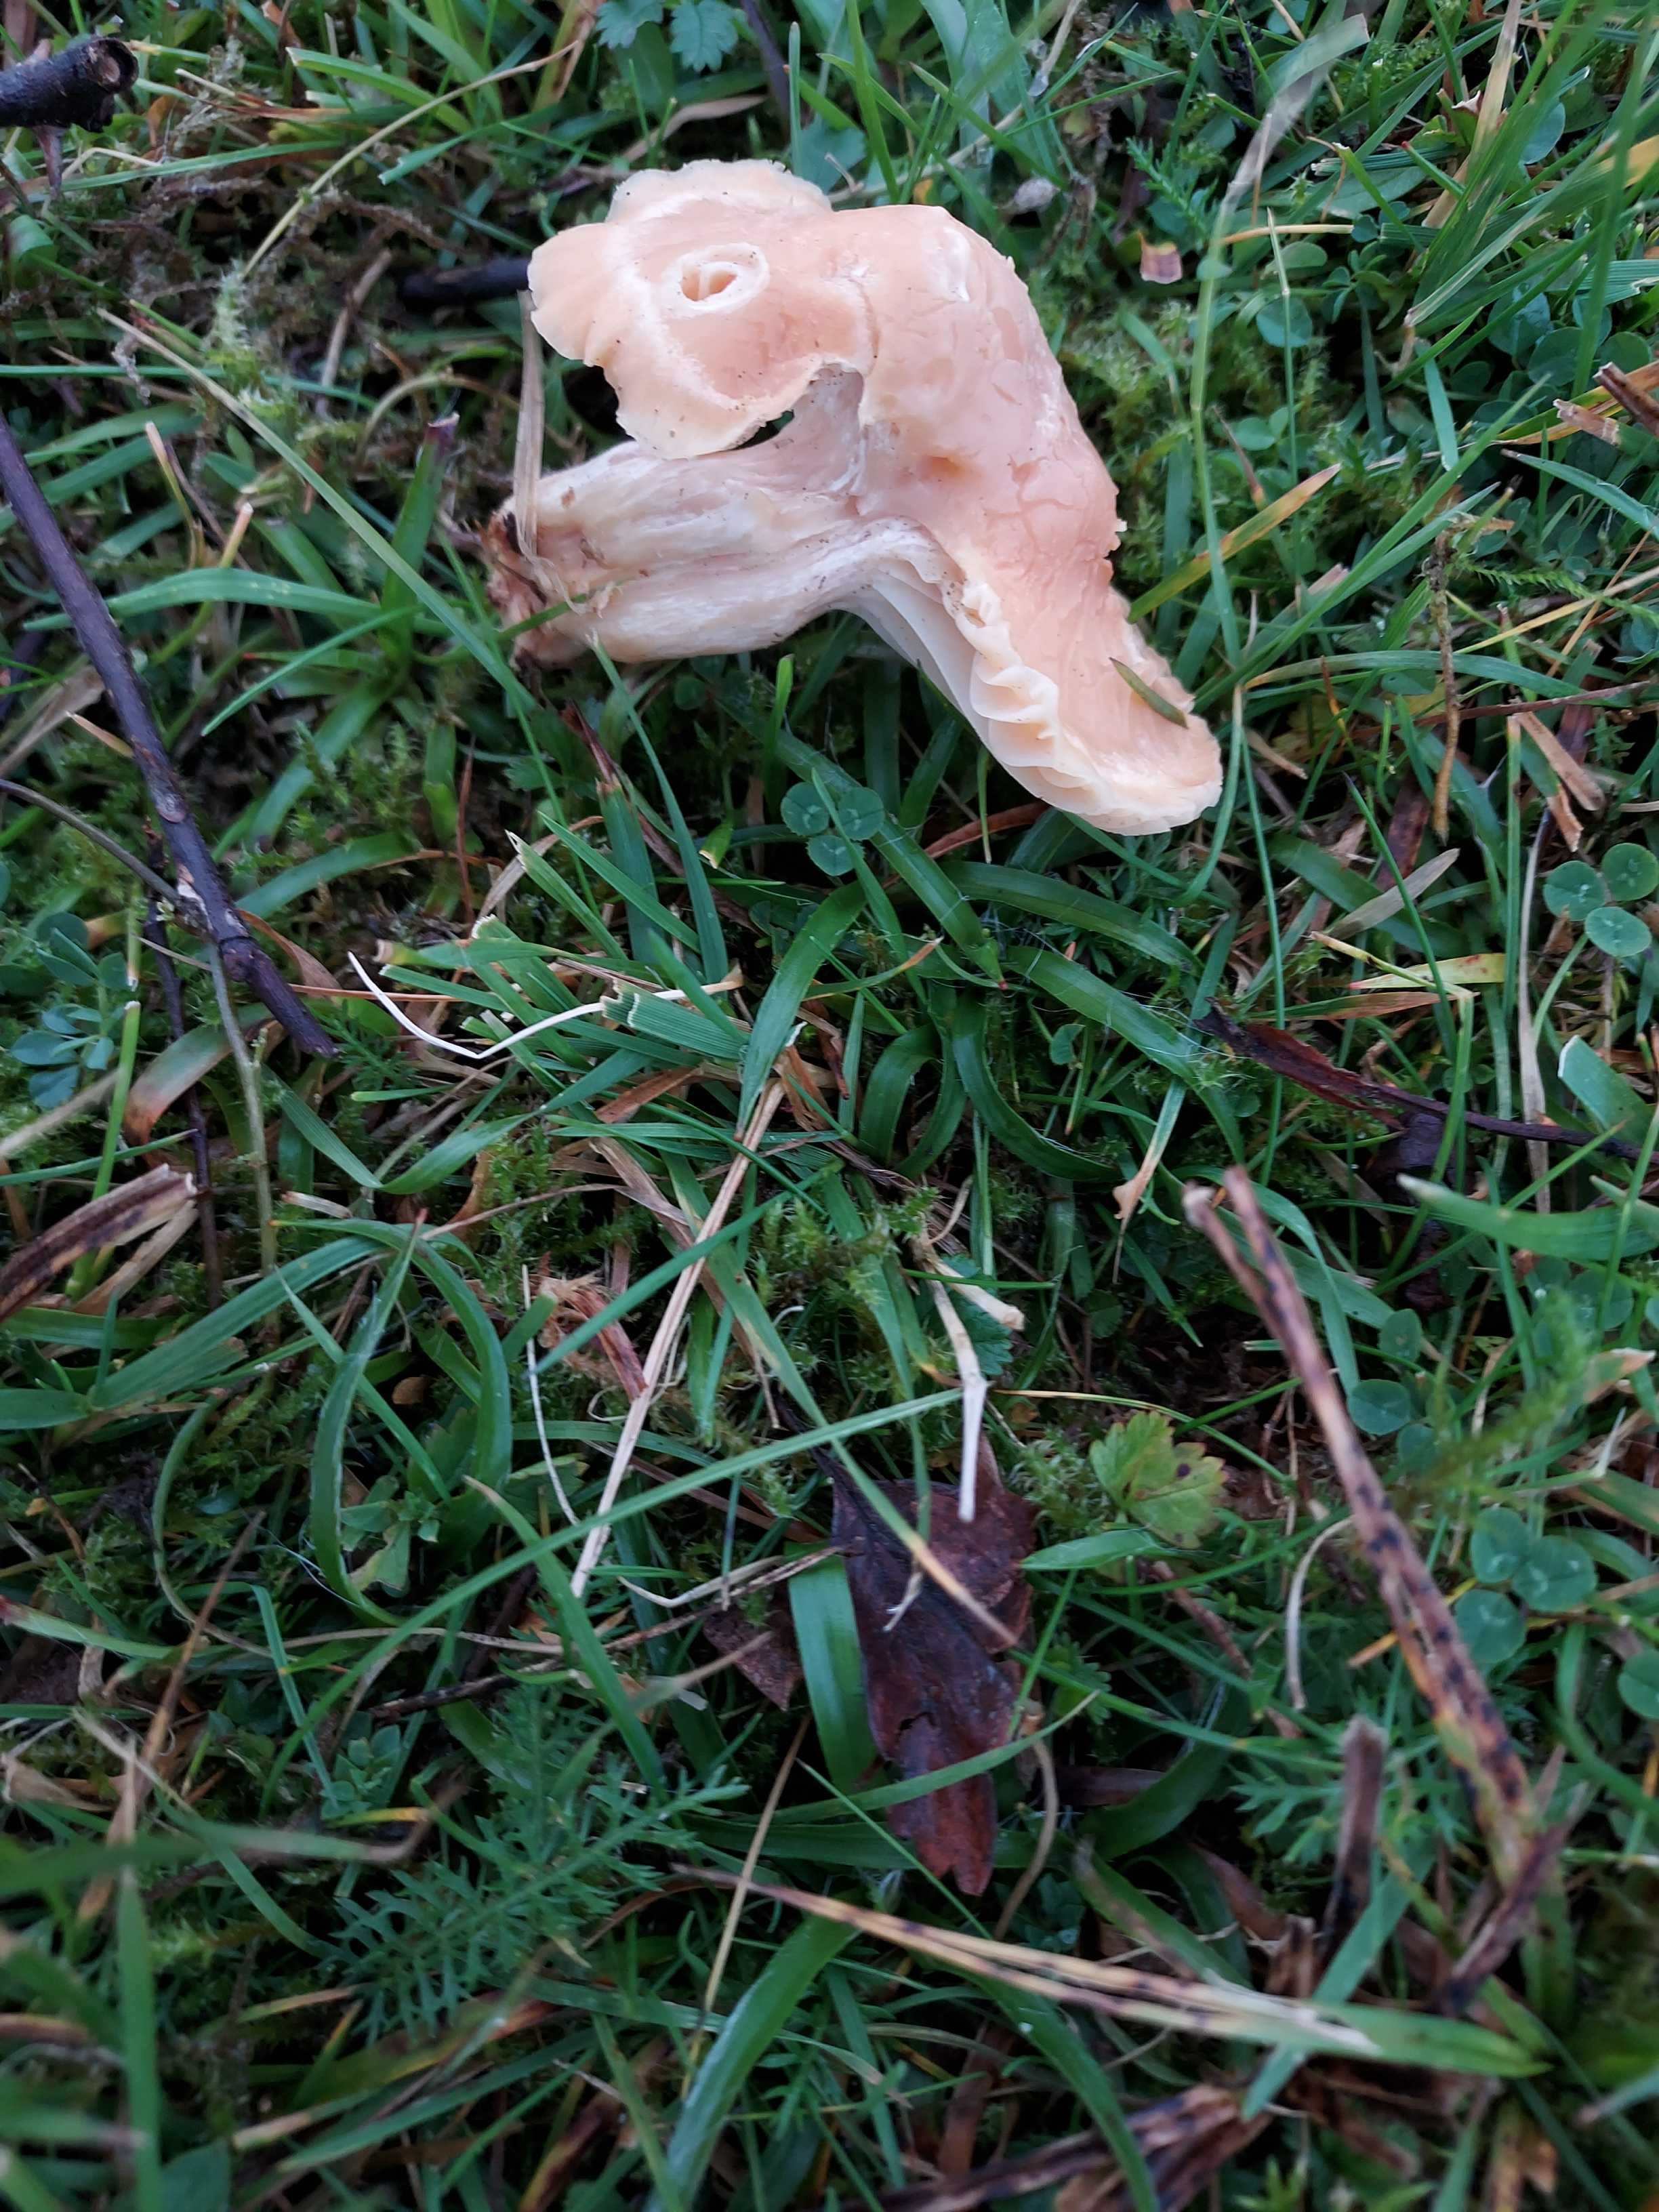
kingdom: Fungi
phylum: Basidiomycota
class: Agaricomycetes
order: Agaricales
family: Hygrophoraceae
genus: Cuphophyllus
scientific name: Cuphophyllus pratensis
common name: eng-vokshat
